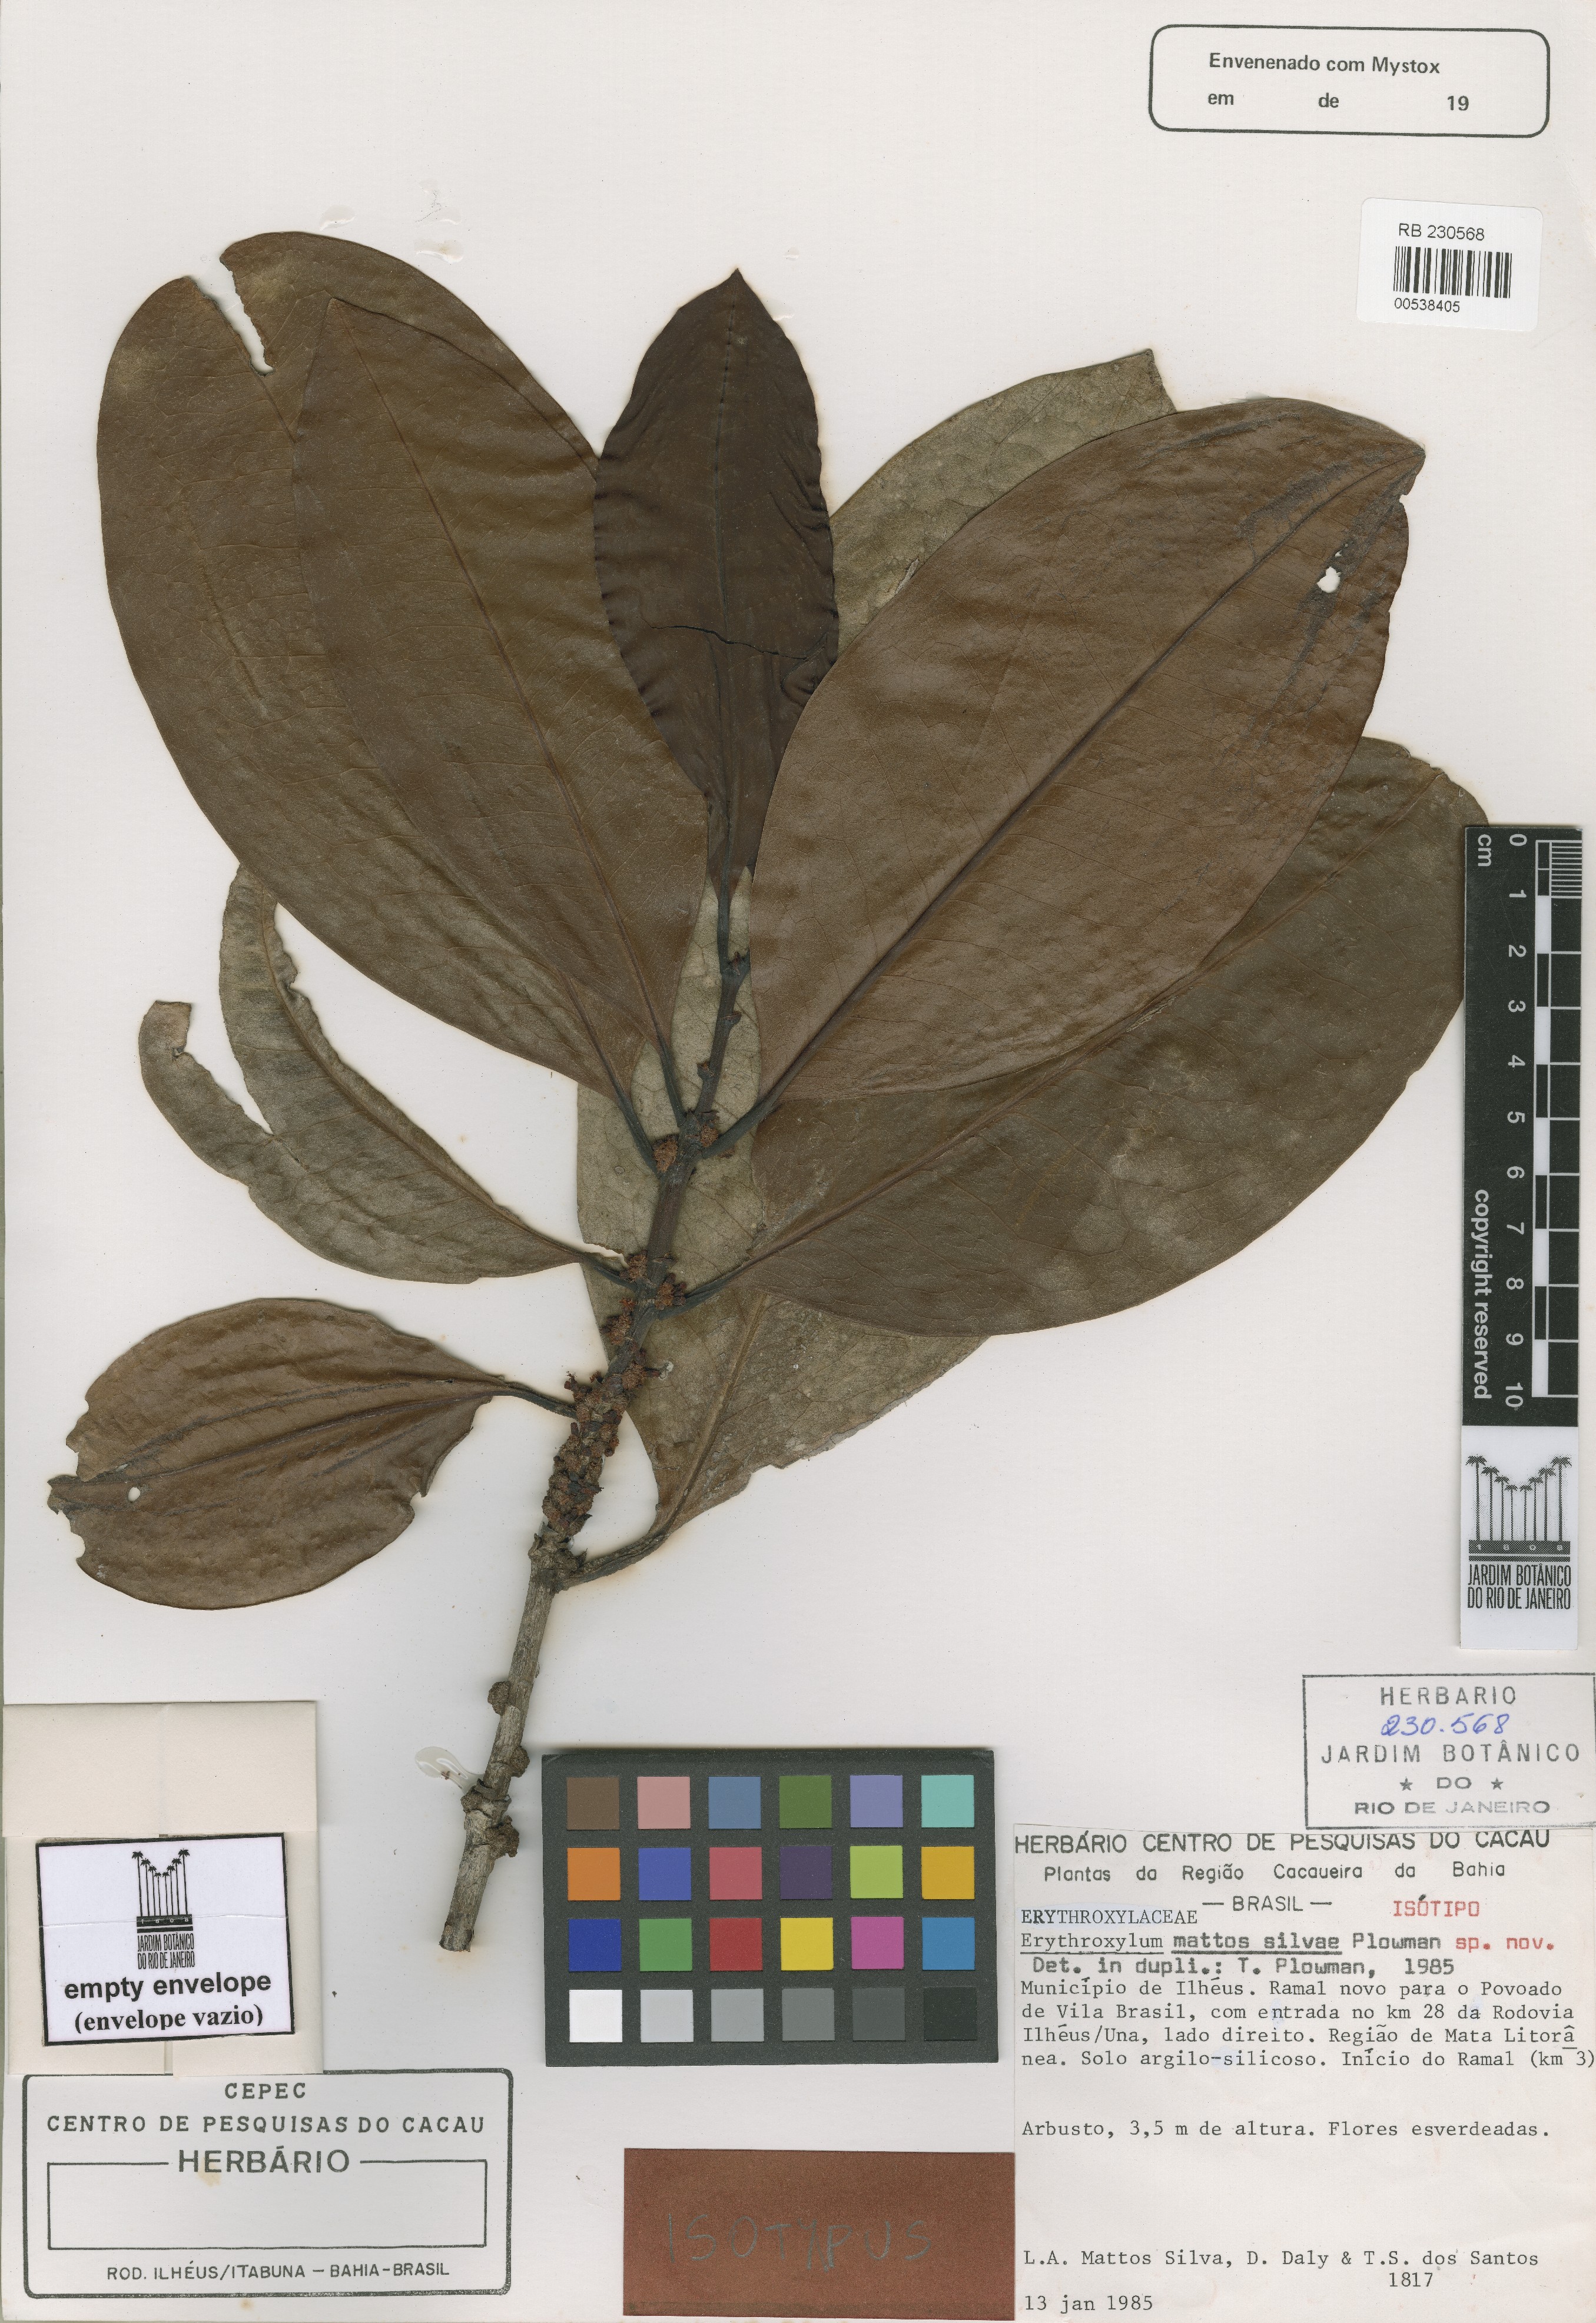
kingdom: Plantae
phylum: Tracheophyta
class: Magnoliopsida
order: Malpighiales
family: Erythroxylaceae
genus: Erythroxylum
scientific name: Erythroxylum mattos-silvae
